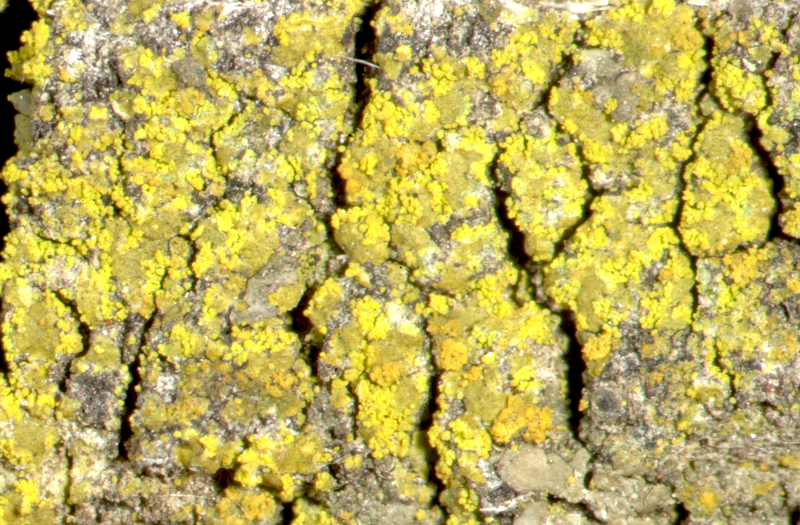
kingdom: Fungi
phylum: Ascomycota
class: Candelariomycetes
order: Candelariales
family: Candelariaceae
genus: Candelaria
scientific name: Candelaria concolor
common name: Candleflame lichen
